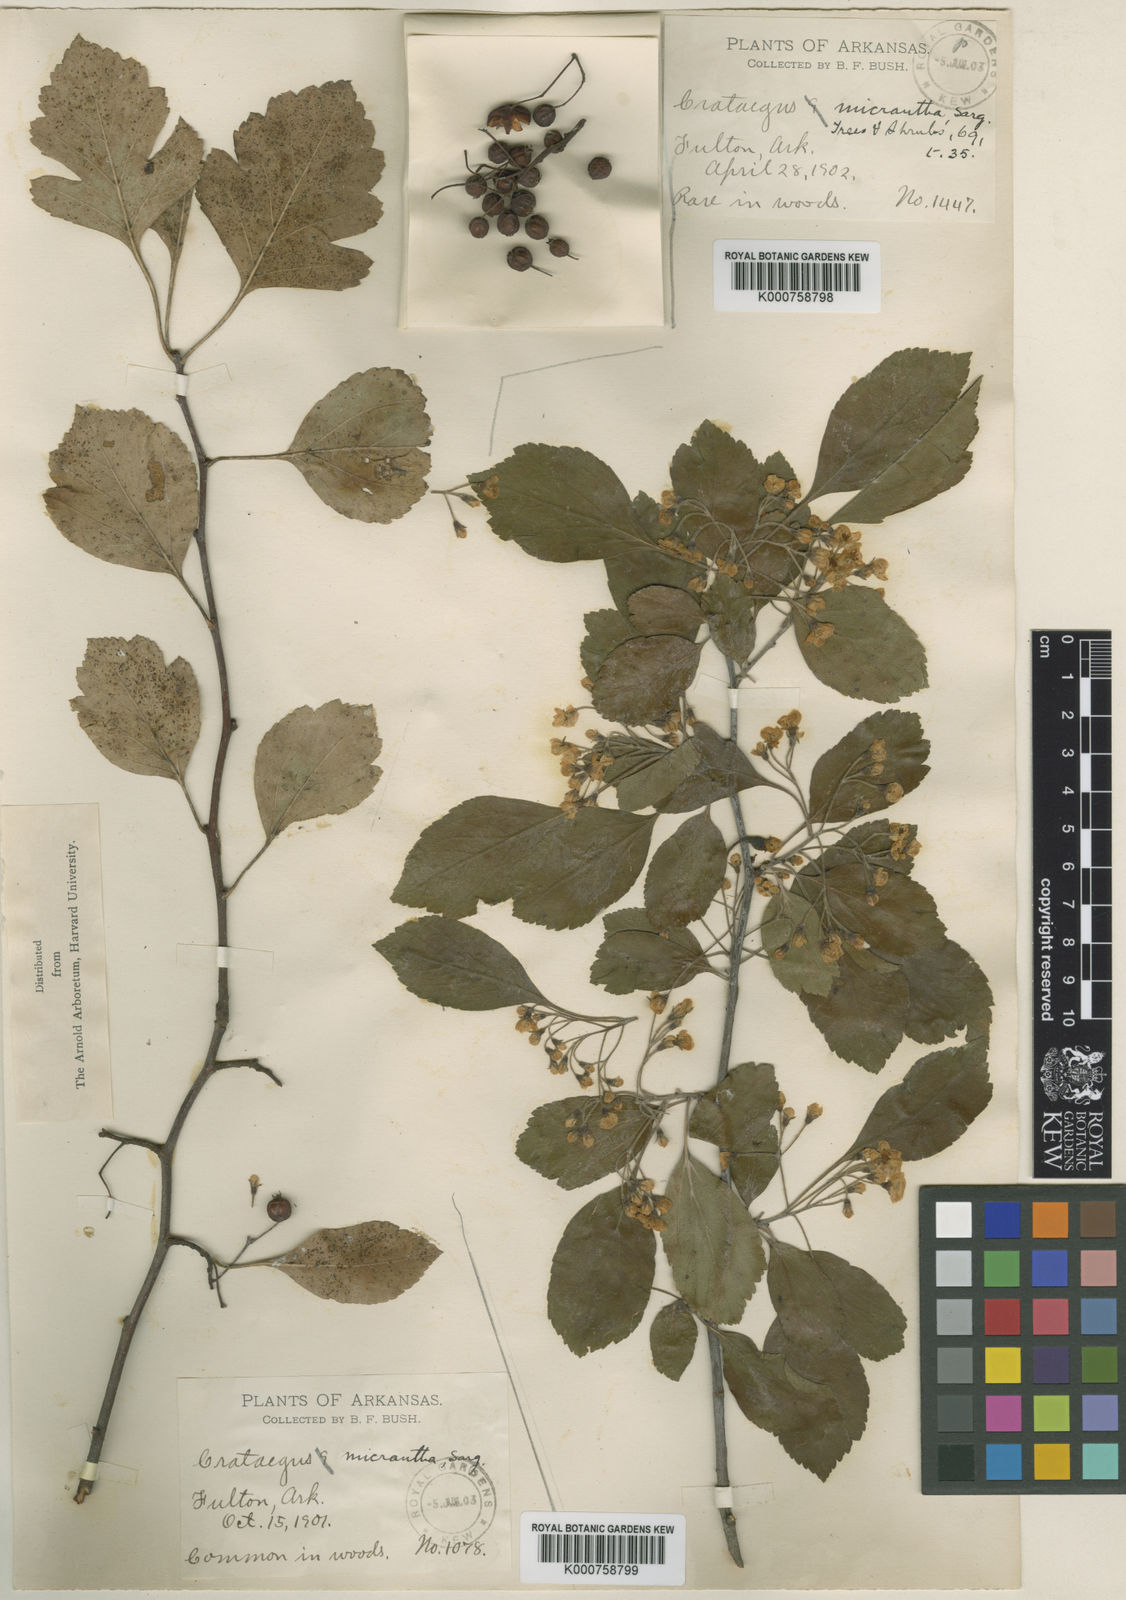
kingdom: Plantae
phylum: Tracheophyta
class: Magnoliopsida
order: Rosales
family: Rosaceae
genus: Crataegus
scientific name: Crataegus viridis
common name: Southernthorn
